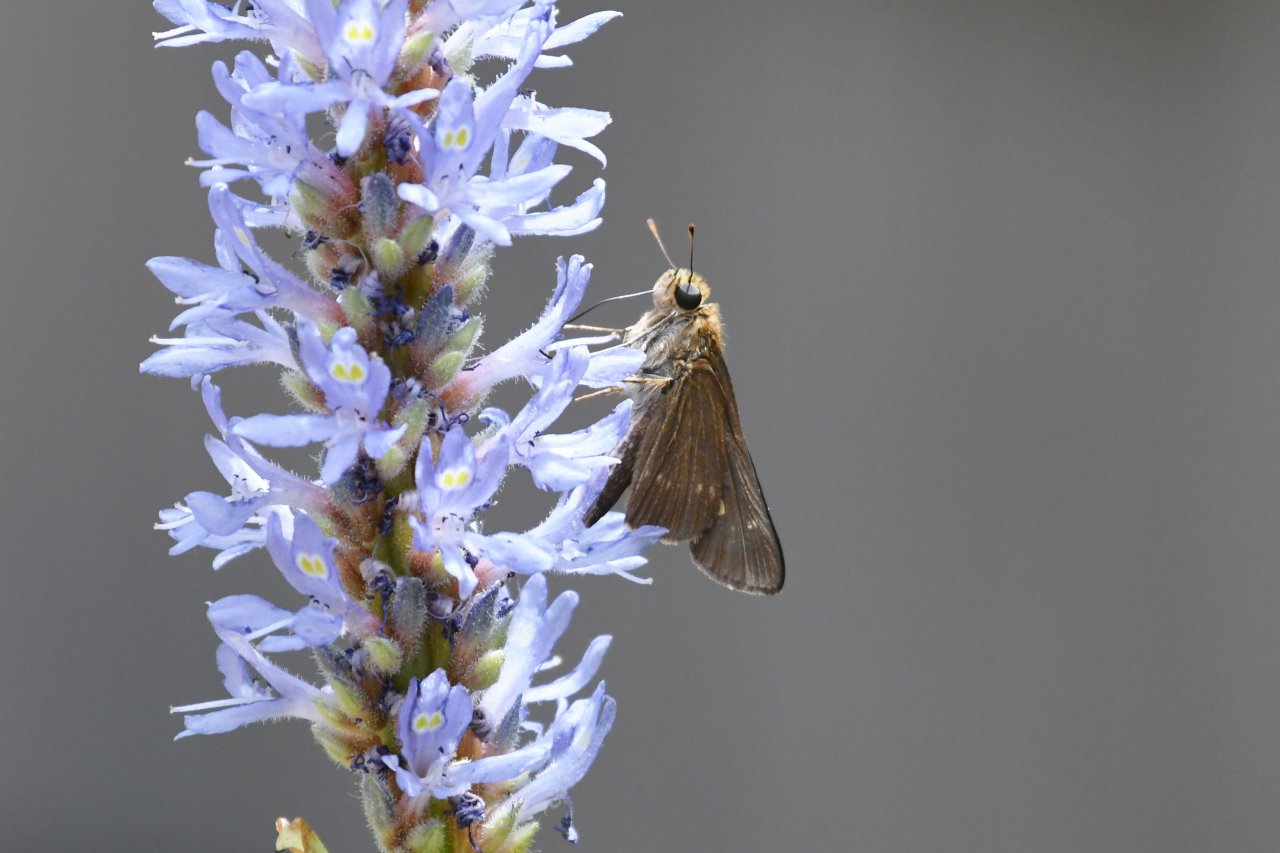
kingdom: Animalia
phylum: Arthropoda
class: Insecta
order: Lepidoptera
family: Hesperiidae
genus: Panoquina
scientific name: Panoquina ocola
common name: Ocola Skipper
